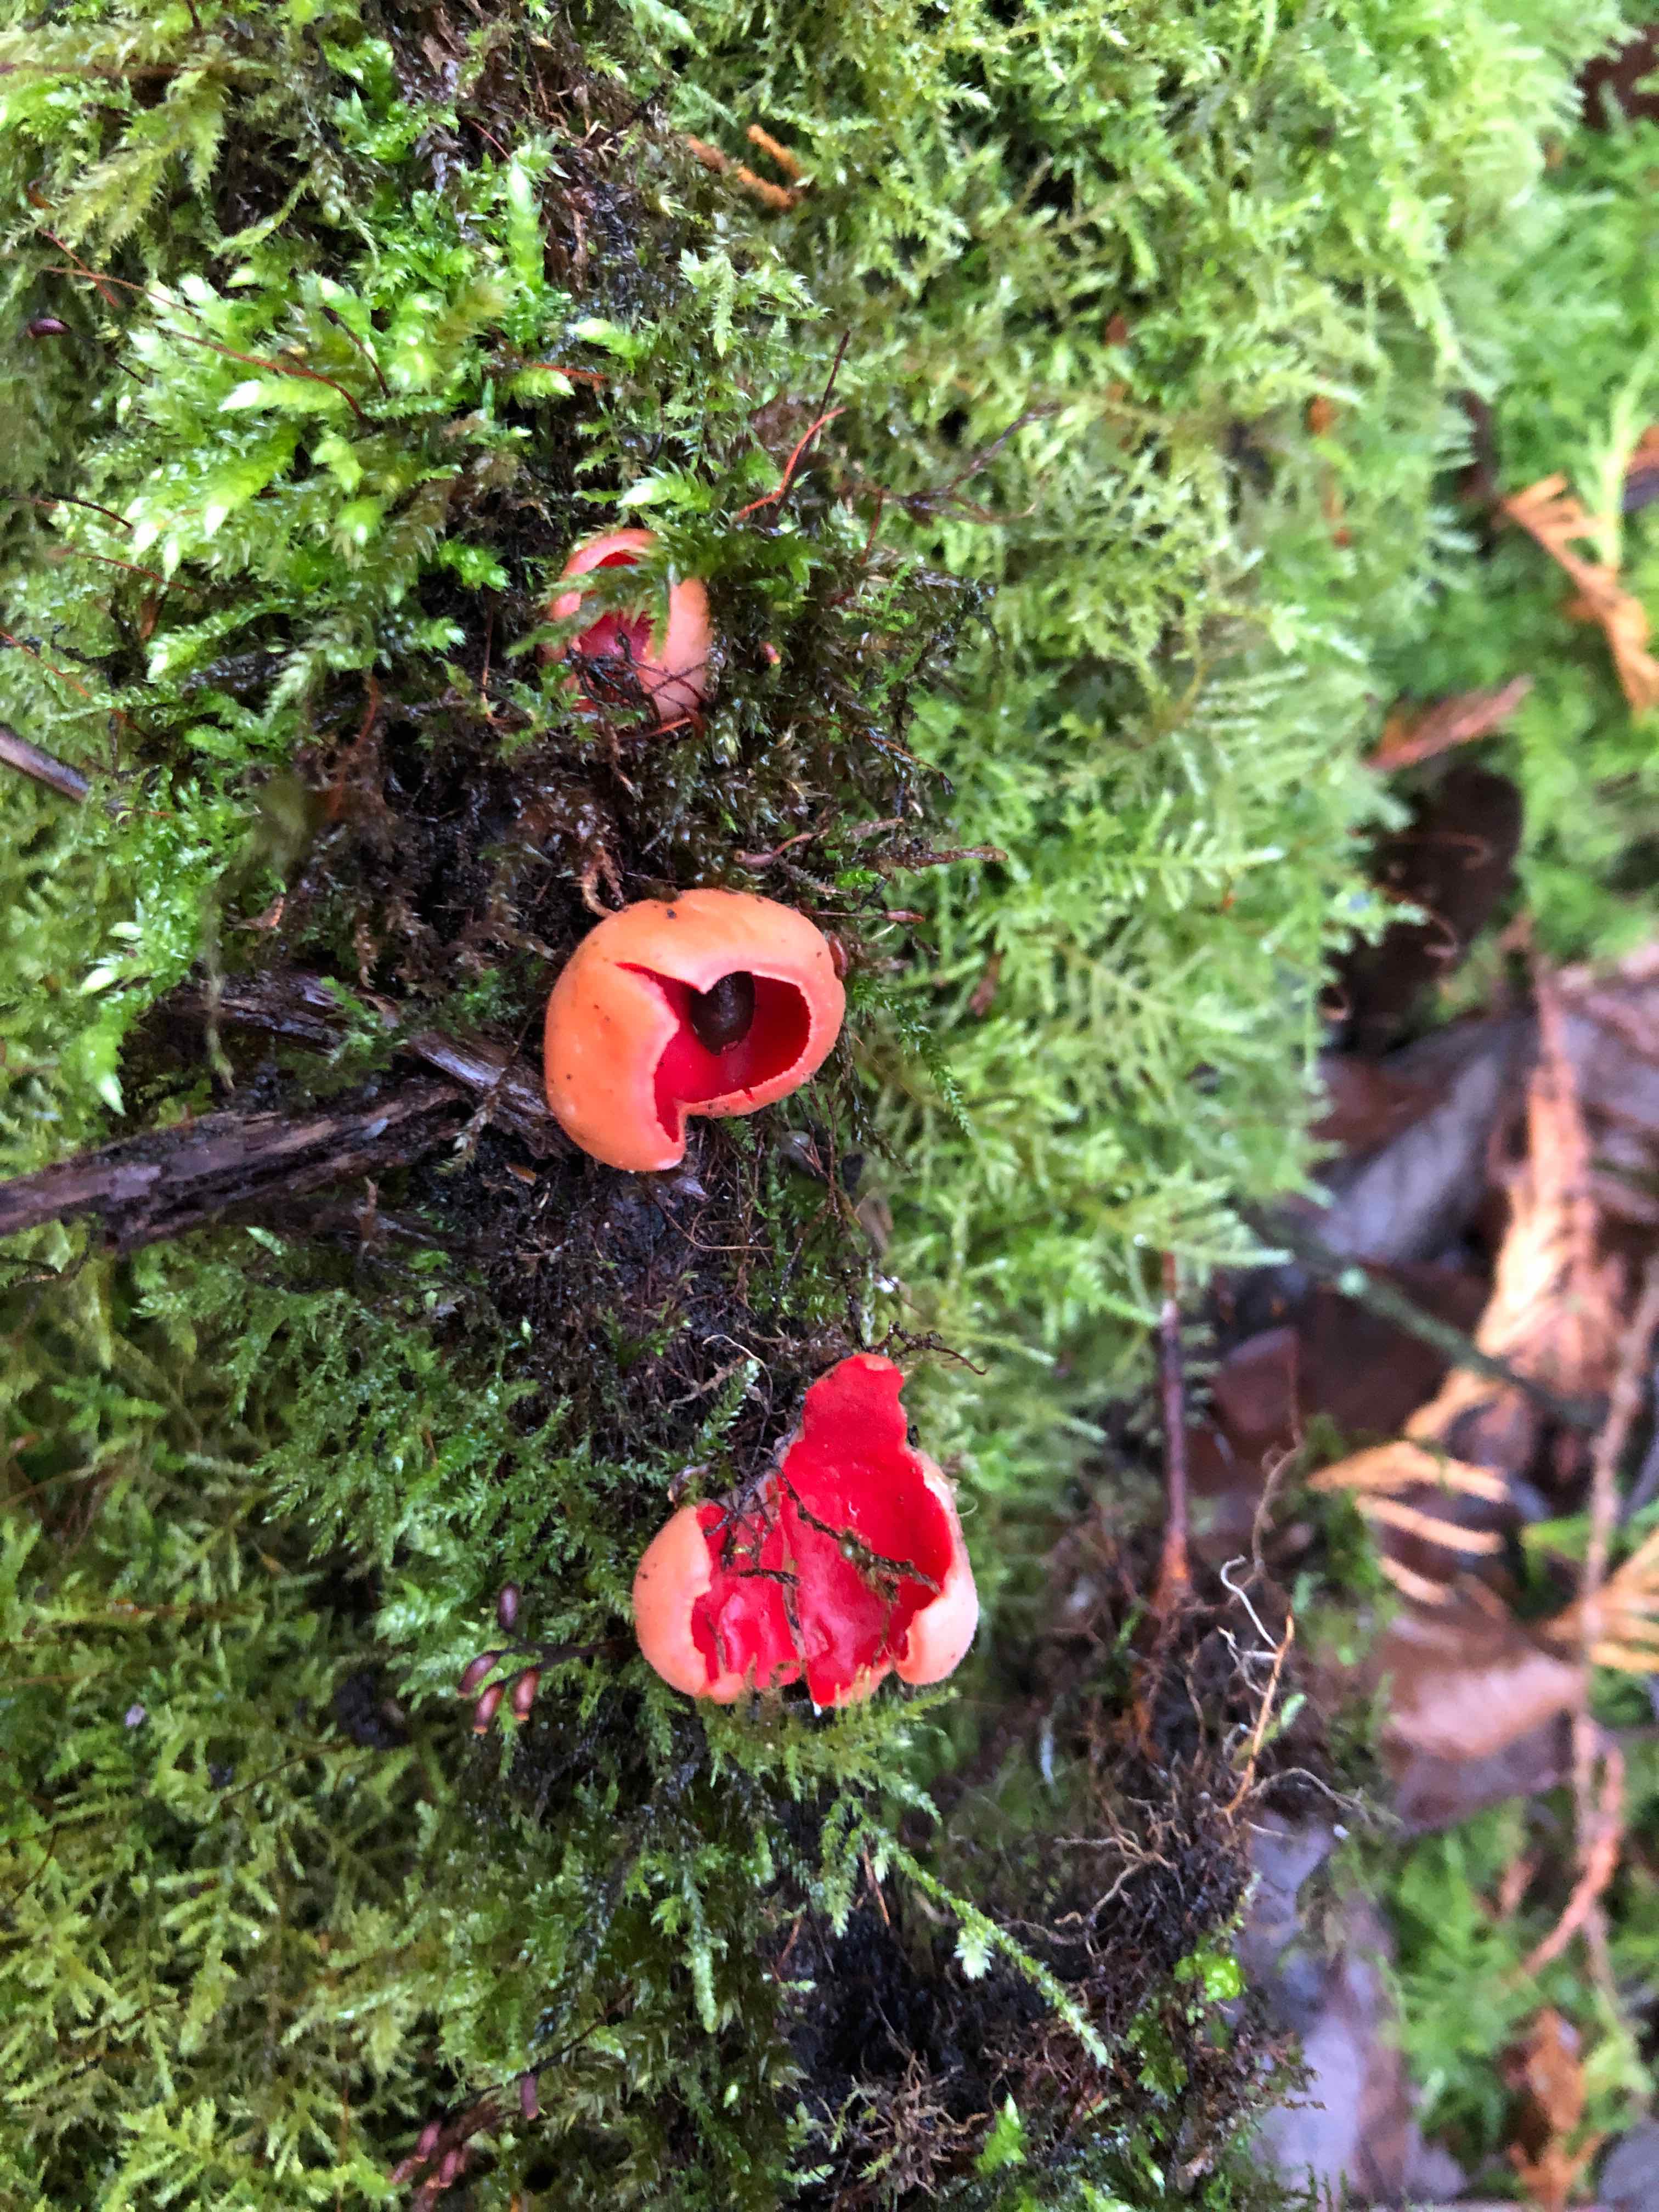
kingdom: Fungi
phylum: Ascomycota
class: Pezizomycetes
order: Pezizales
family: Sarcoscyphaceae
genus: Sarcoscypha
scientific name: Sarcoscypha austriaca
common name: krølhåret pragtbæger
